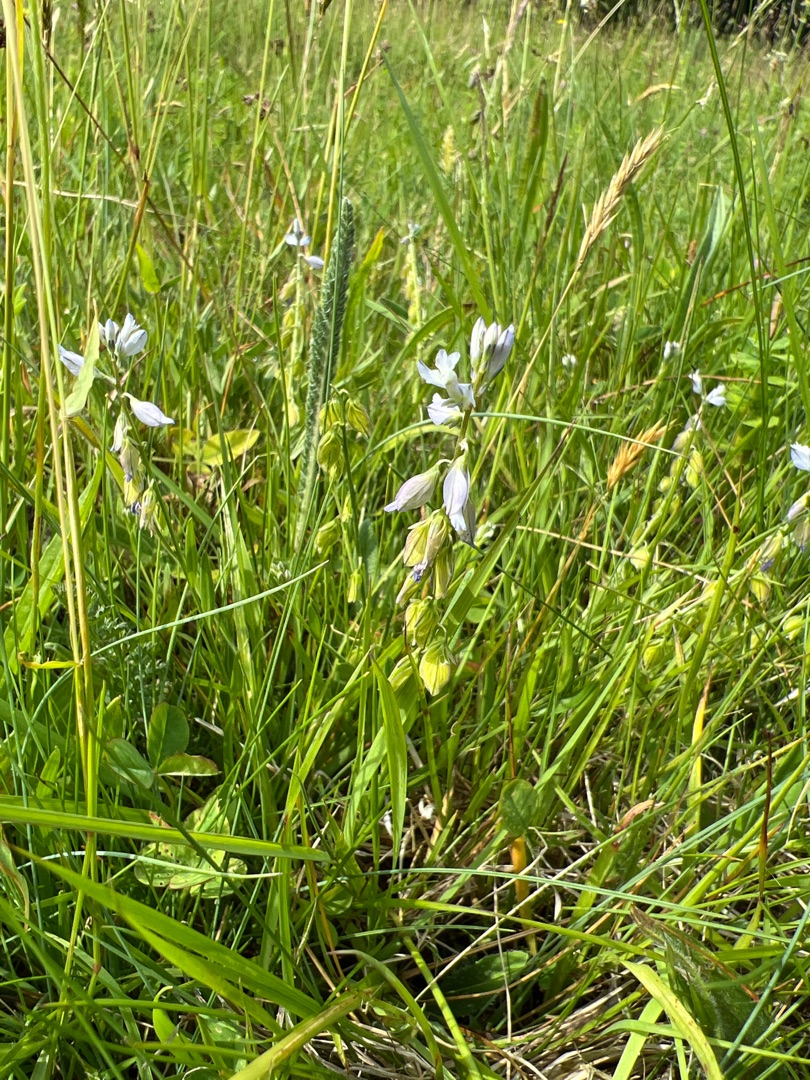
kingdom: Plantae
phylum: Tracheophyta
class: Magnoliopsida
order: Fabales
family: Polygalaceae
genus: Polygala
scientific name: Polygala vulgaris
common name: Almindelig mælkeurt
